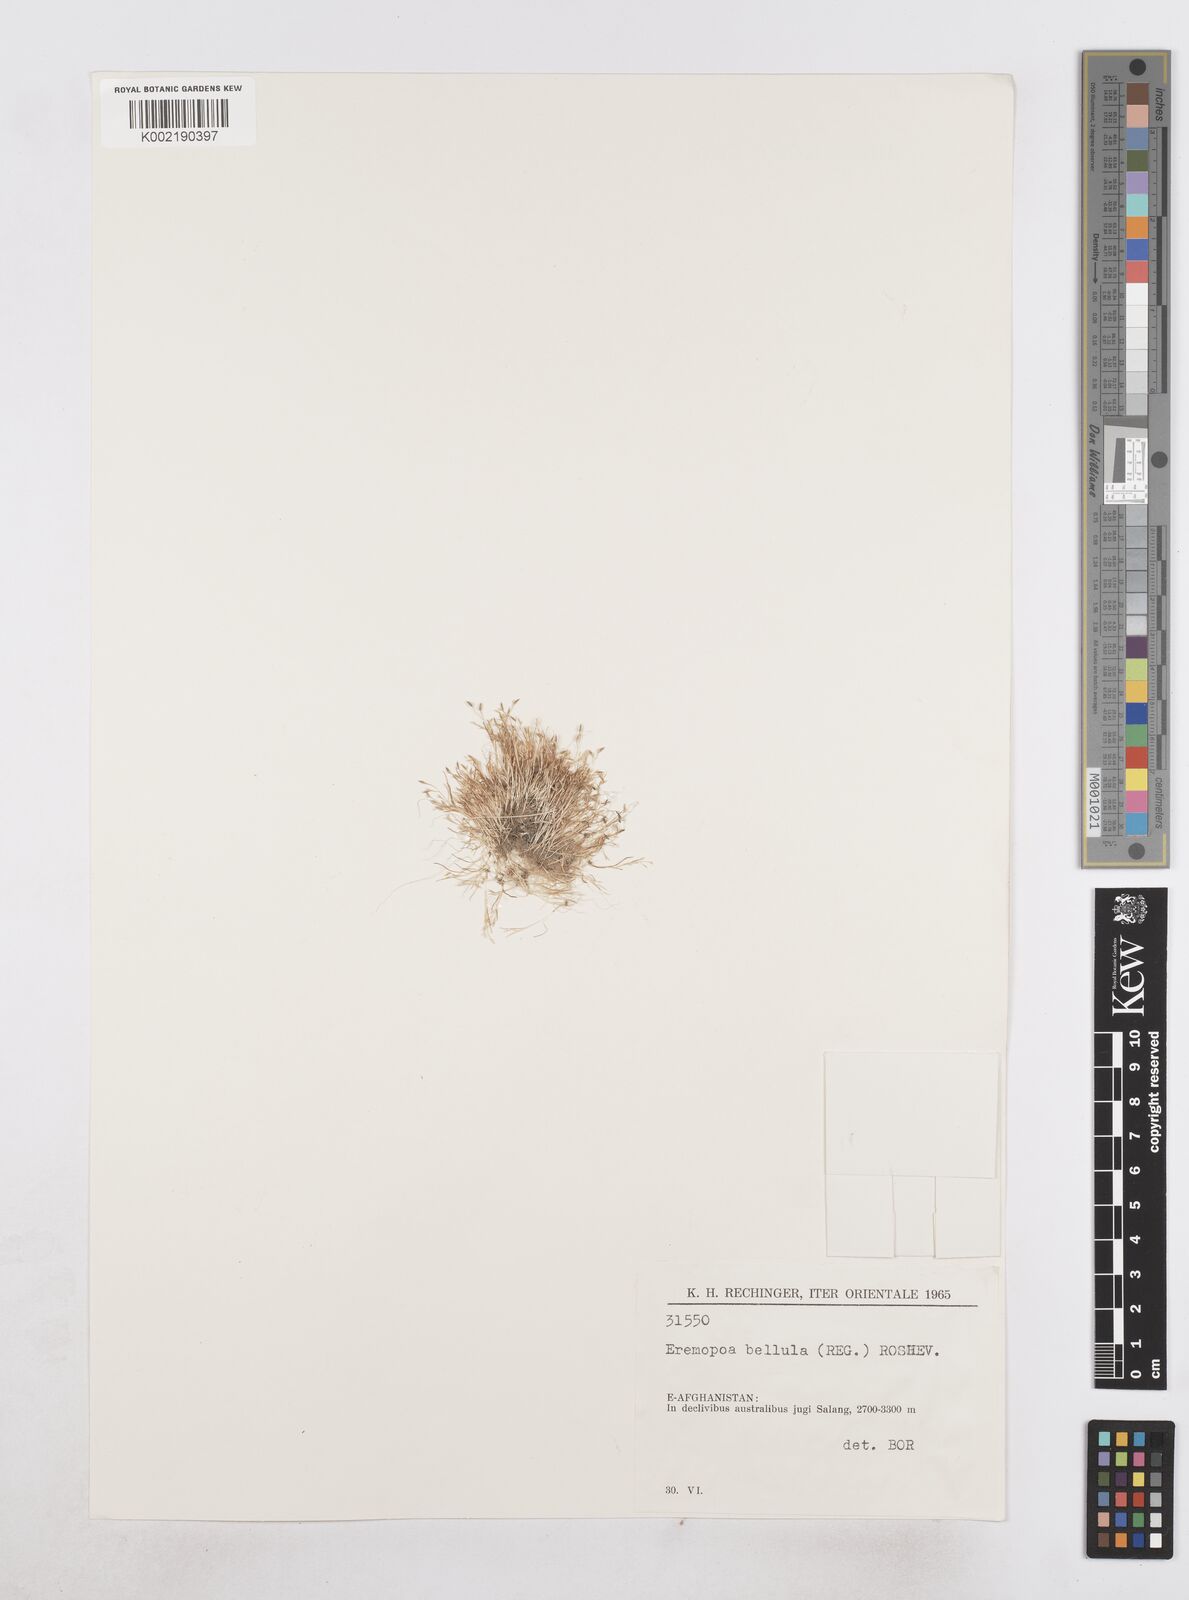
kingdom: Plantae
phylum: Tracheophyta
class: Liliopsida
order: Poales
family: Poaceae
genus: Poa
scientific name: Poa diaphora
